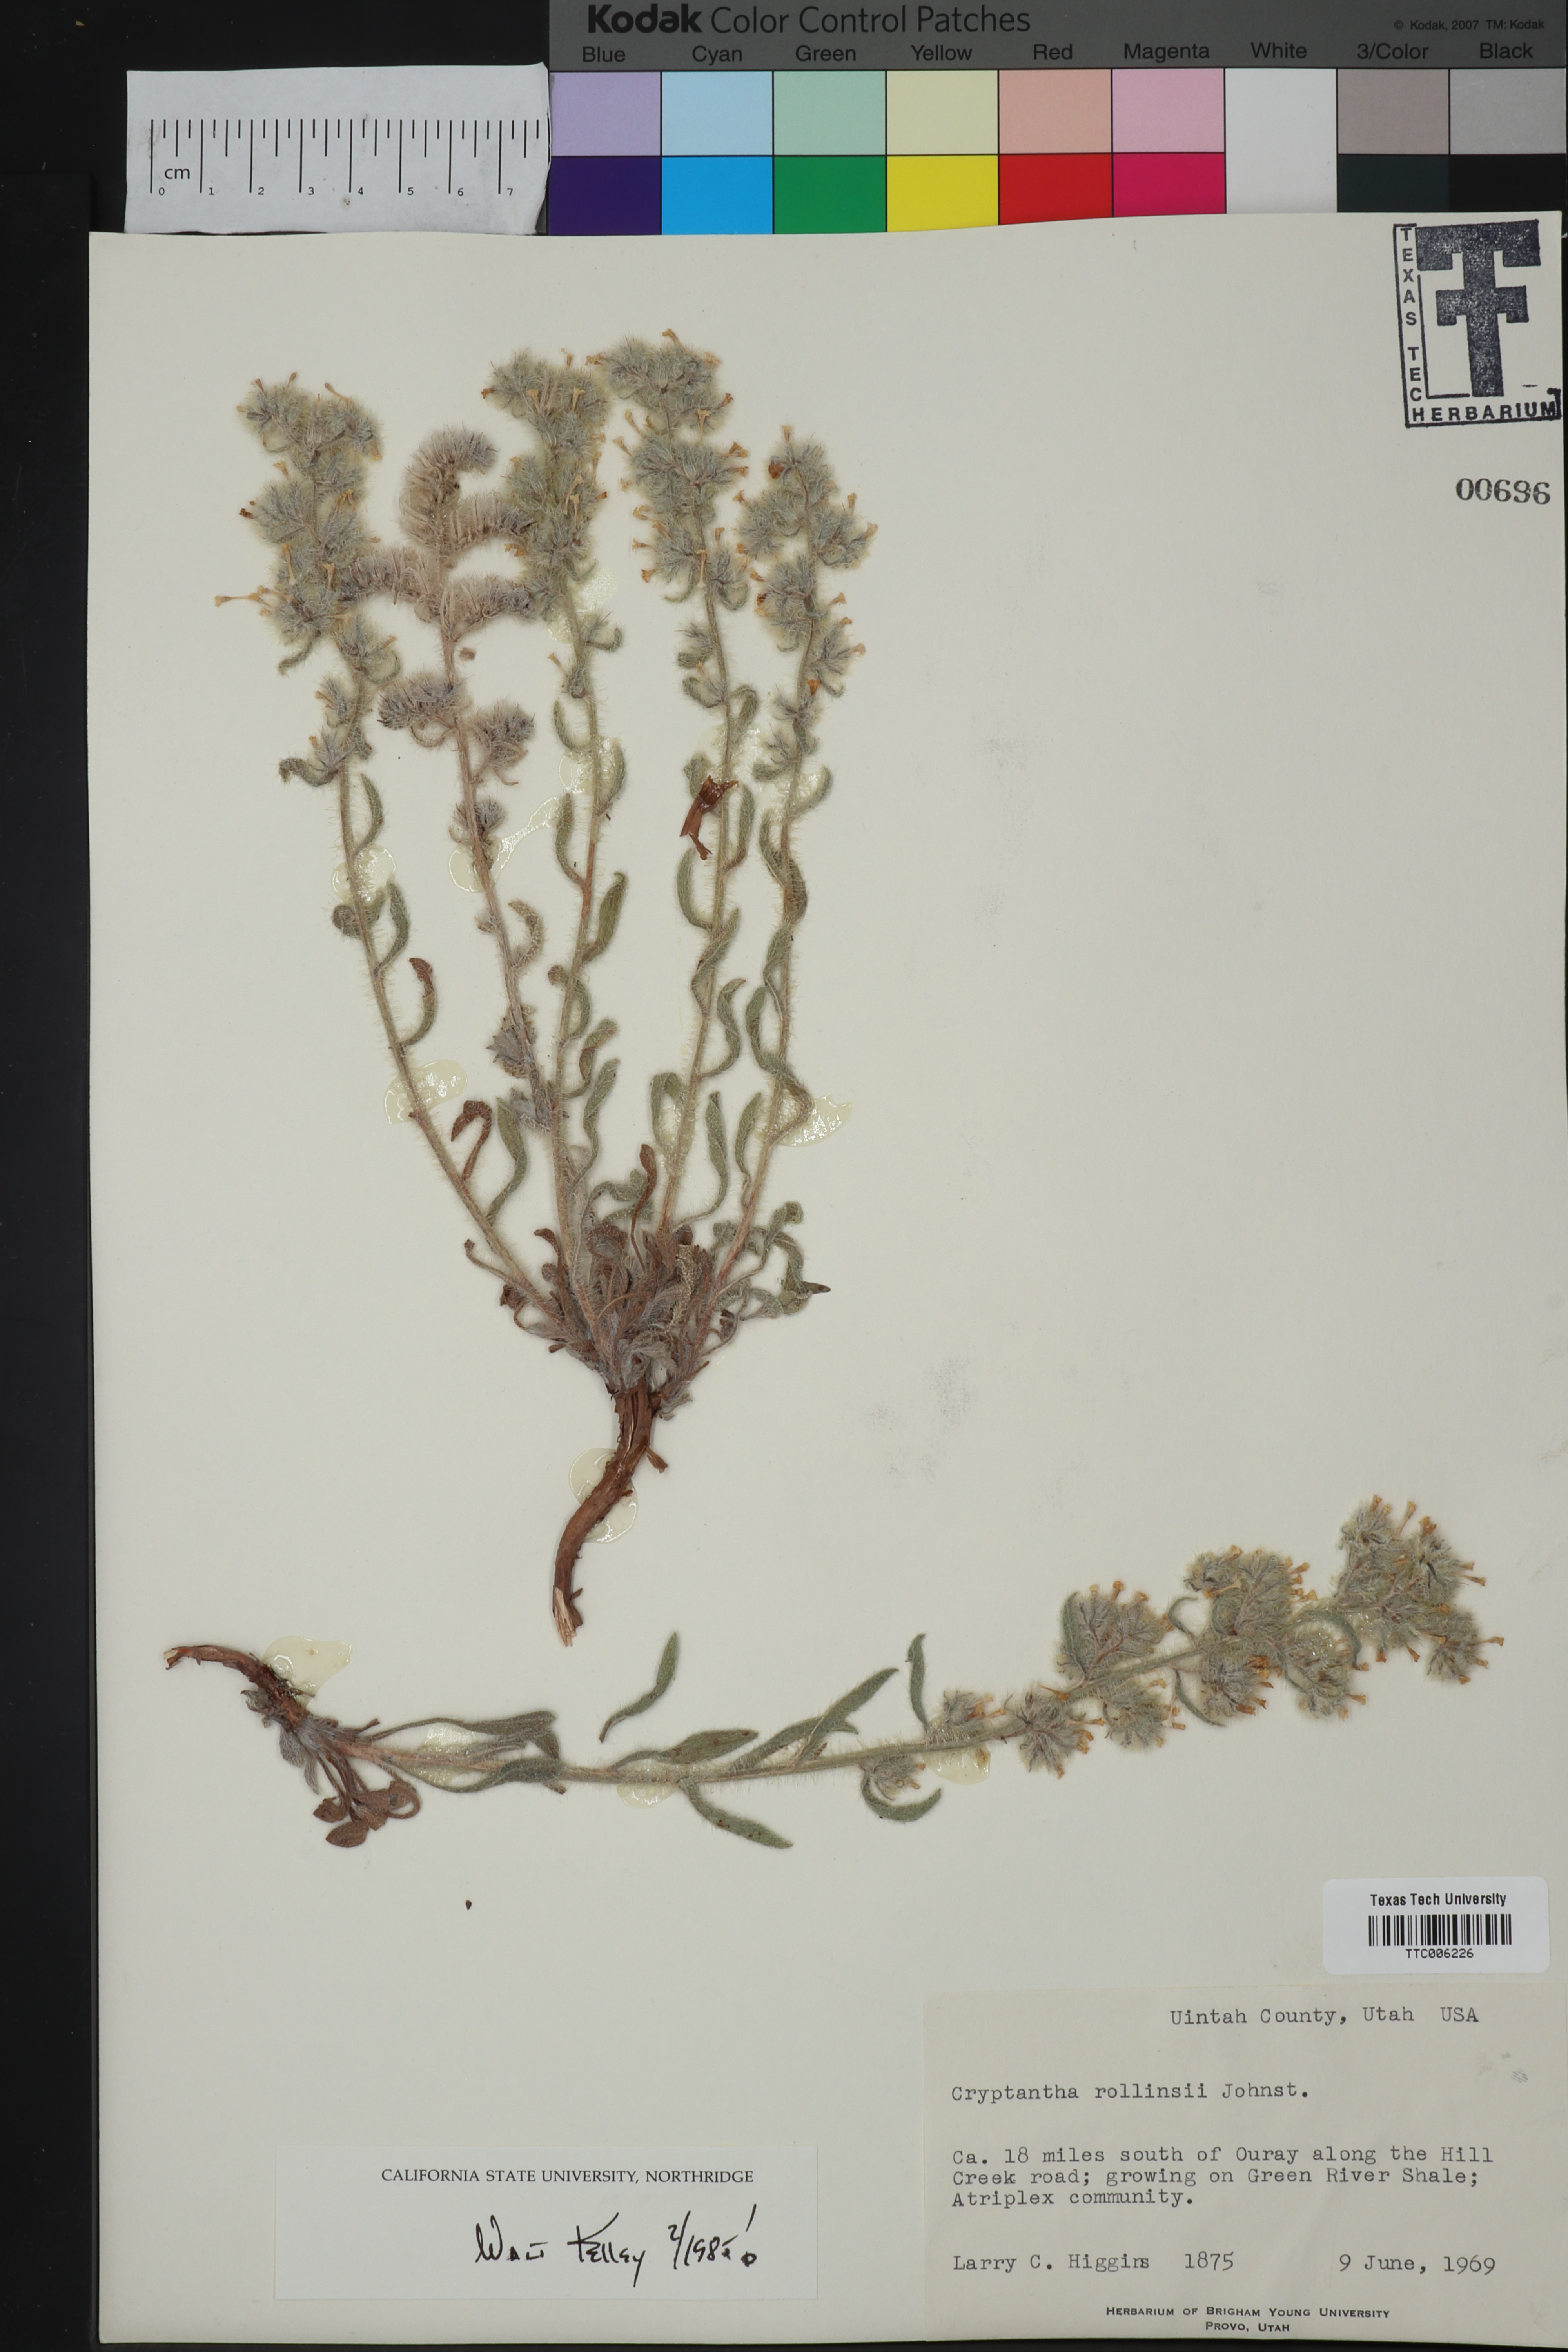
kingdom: Plantae
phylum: Tracheophyta
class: Magnoliopsida
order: Boraginales
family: Boraginaceae
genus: Oreocarya
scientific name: Oreocarya rollinsii
